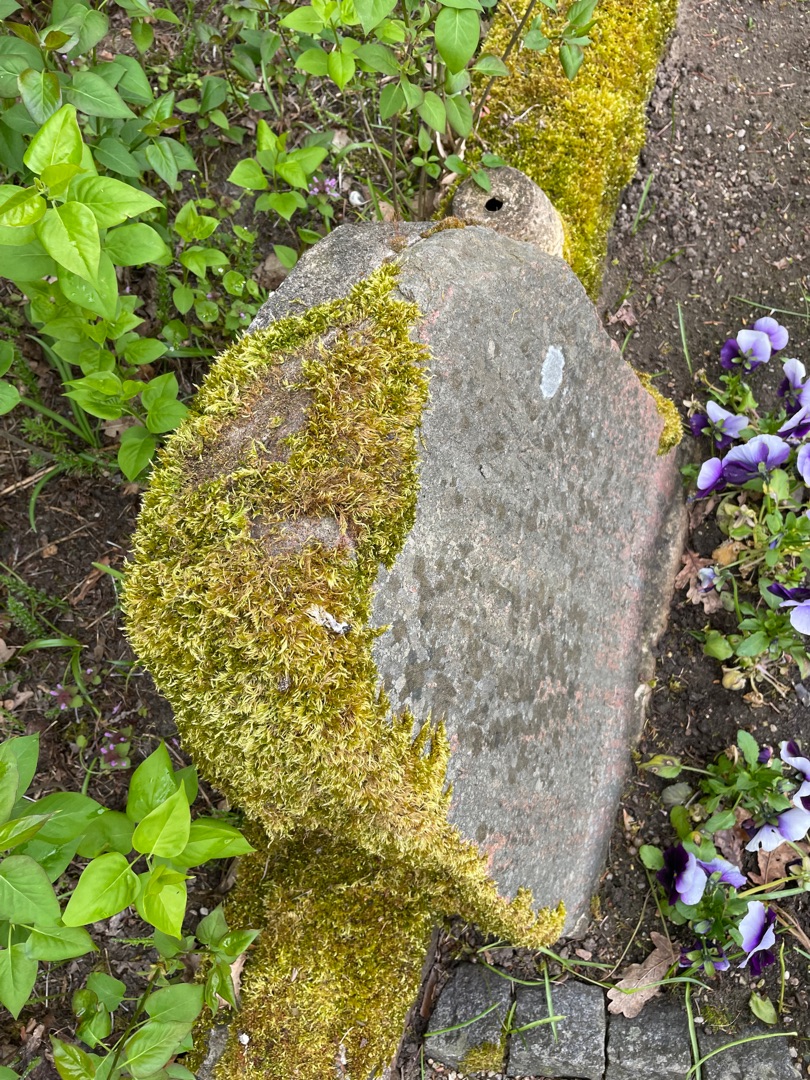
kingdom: Plantae
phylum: Bryophyta
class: Bryopsida
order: Hypnales
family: Brachytheciaceae
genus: Homalothecium
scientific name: Homalothecium sericeum
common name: Krybende silkemos
